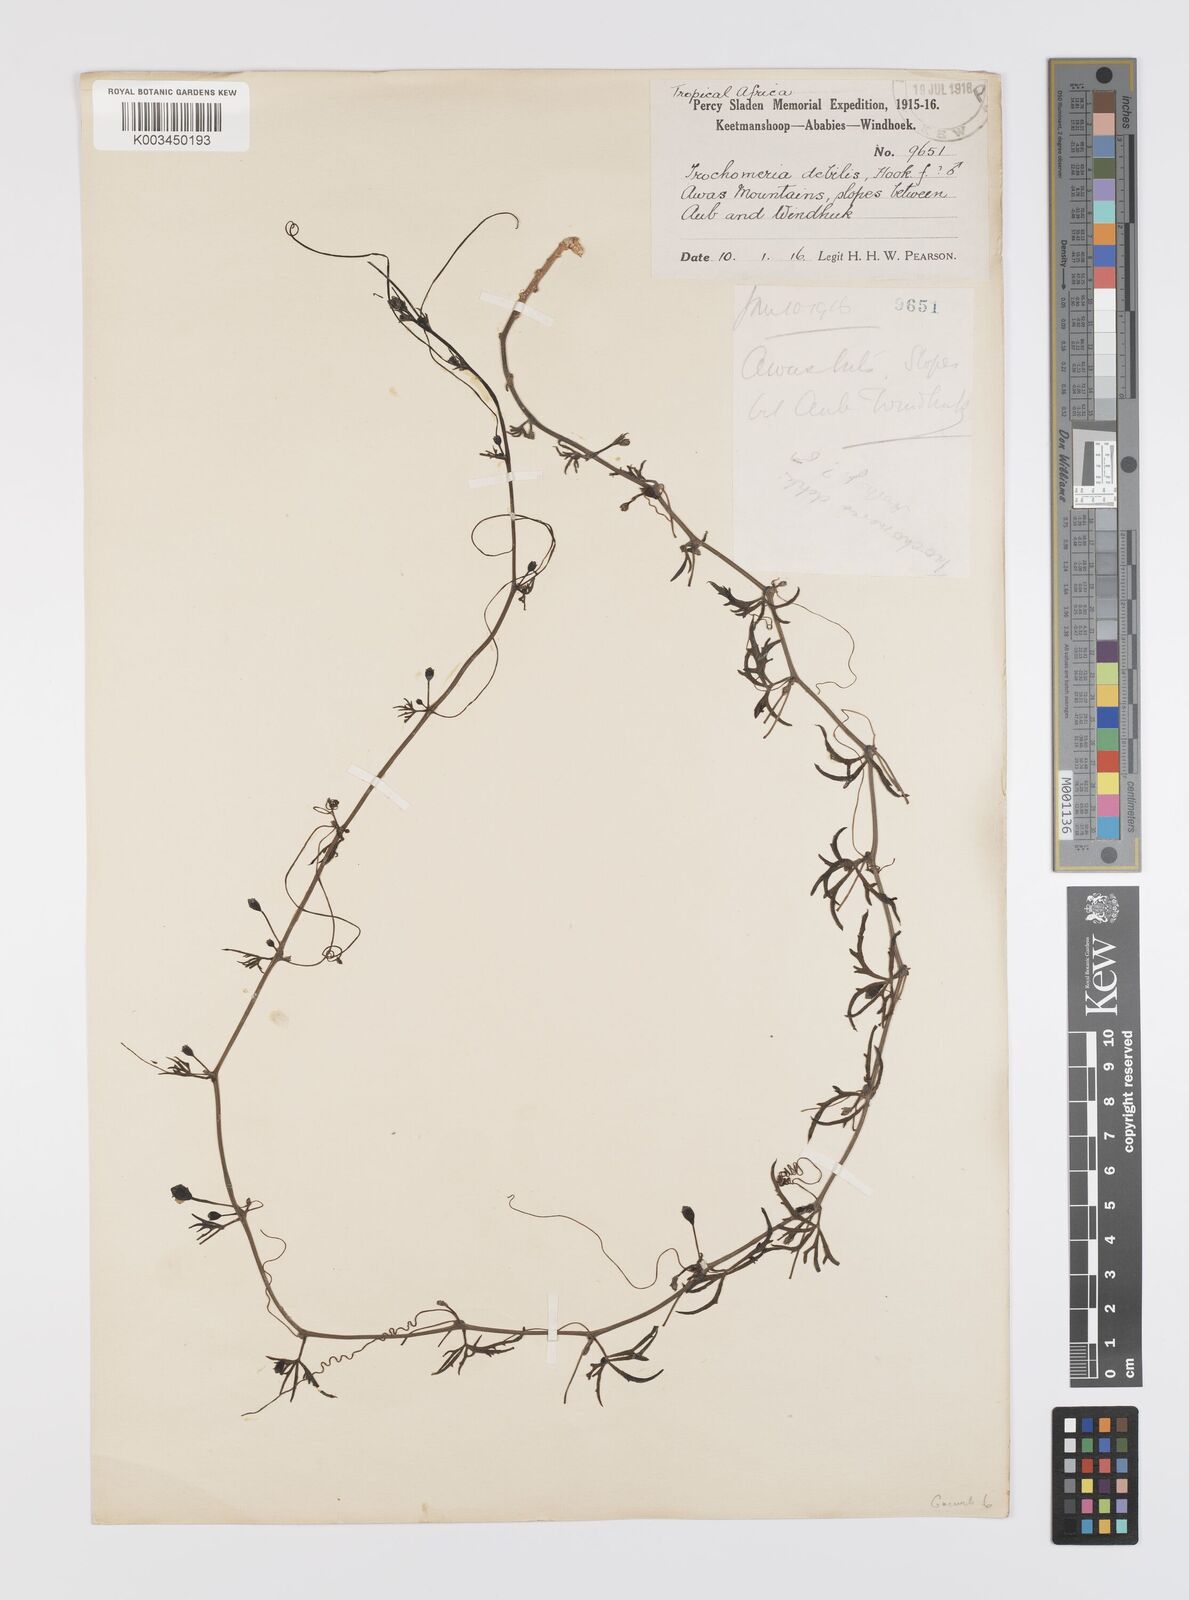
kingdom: Plantae
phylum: Tracheophyta
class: Magnoliopsida
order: Cucurbitales
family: Cucurbitaceae
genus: Trochomeria
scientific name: Trochomeria debilis
